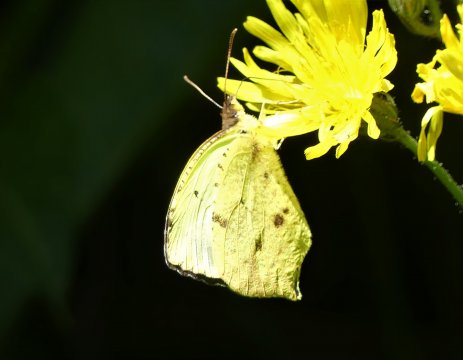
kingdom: Animalia
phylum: Arthropoda
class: Insecta
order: Lepidoptera
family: Pieridae
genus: Eurema
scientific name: Eurema salome
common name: Salome Yellow
